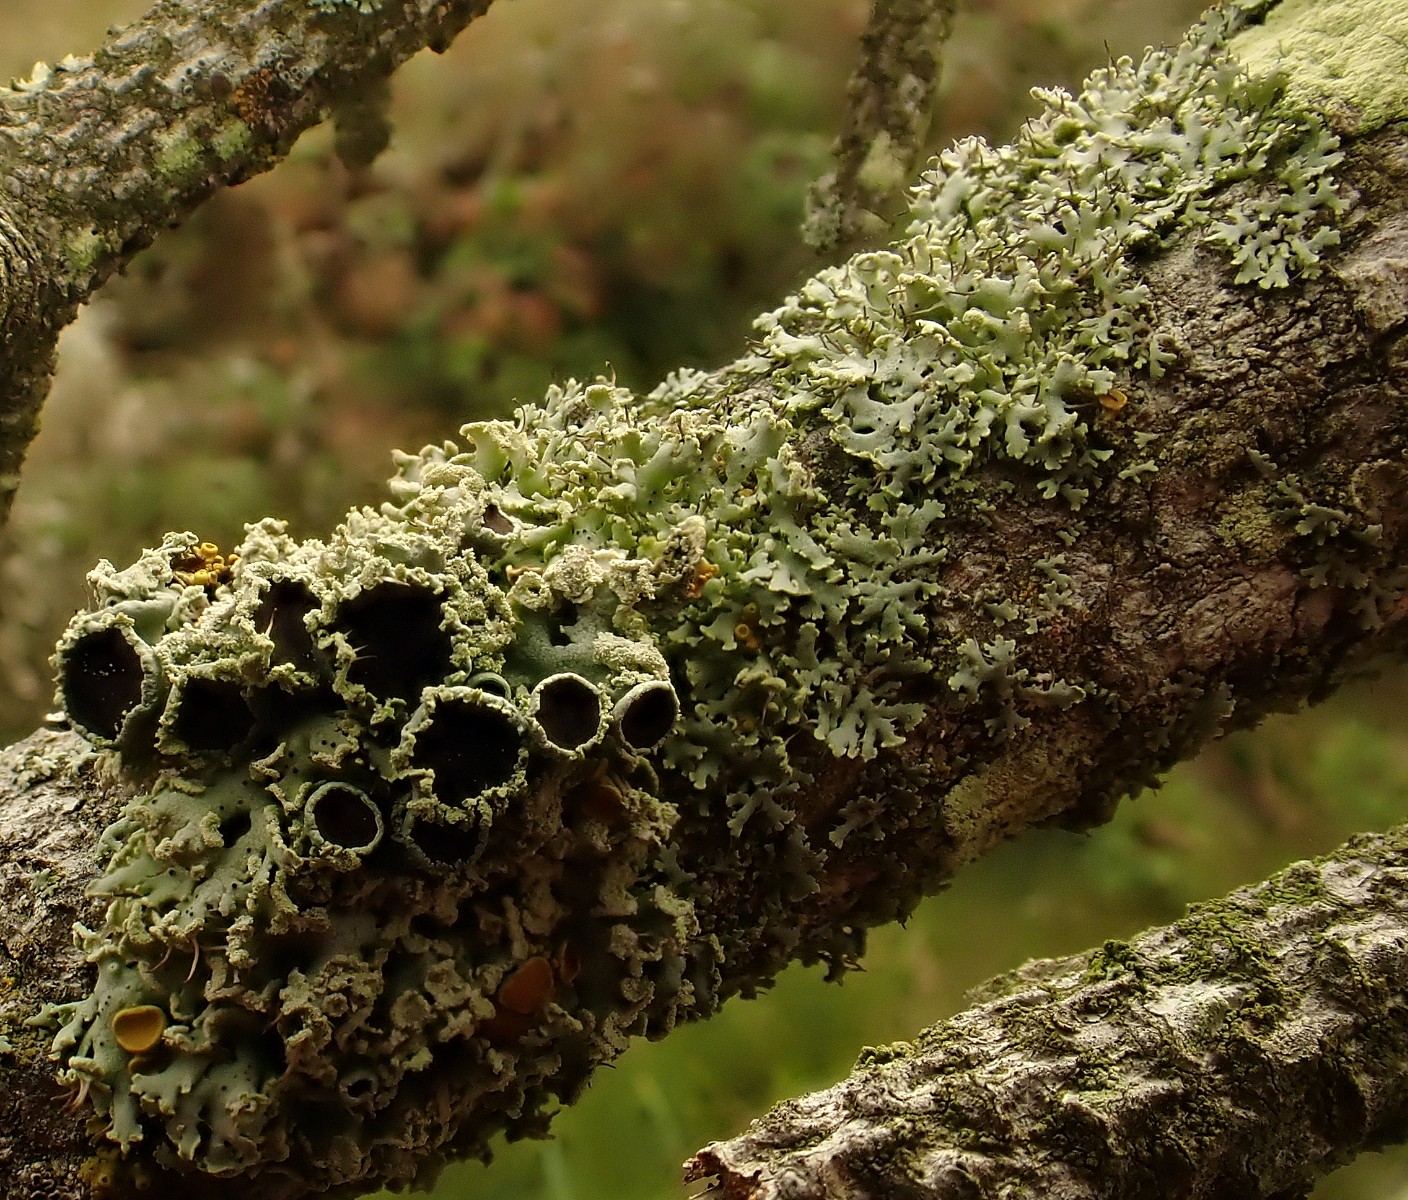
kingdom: Fungi
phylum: Ascomycota
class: Lecanoromycetes
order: Caliciales
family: Physciaceae
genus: Physcia
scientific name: Physcia tenella
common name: spæd rosetlav
